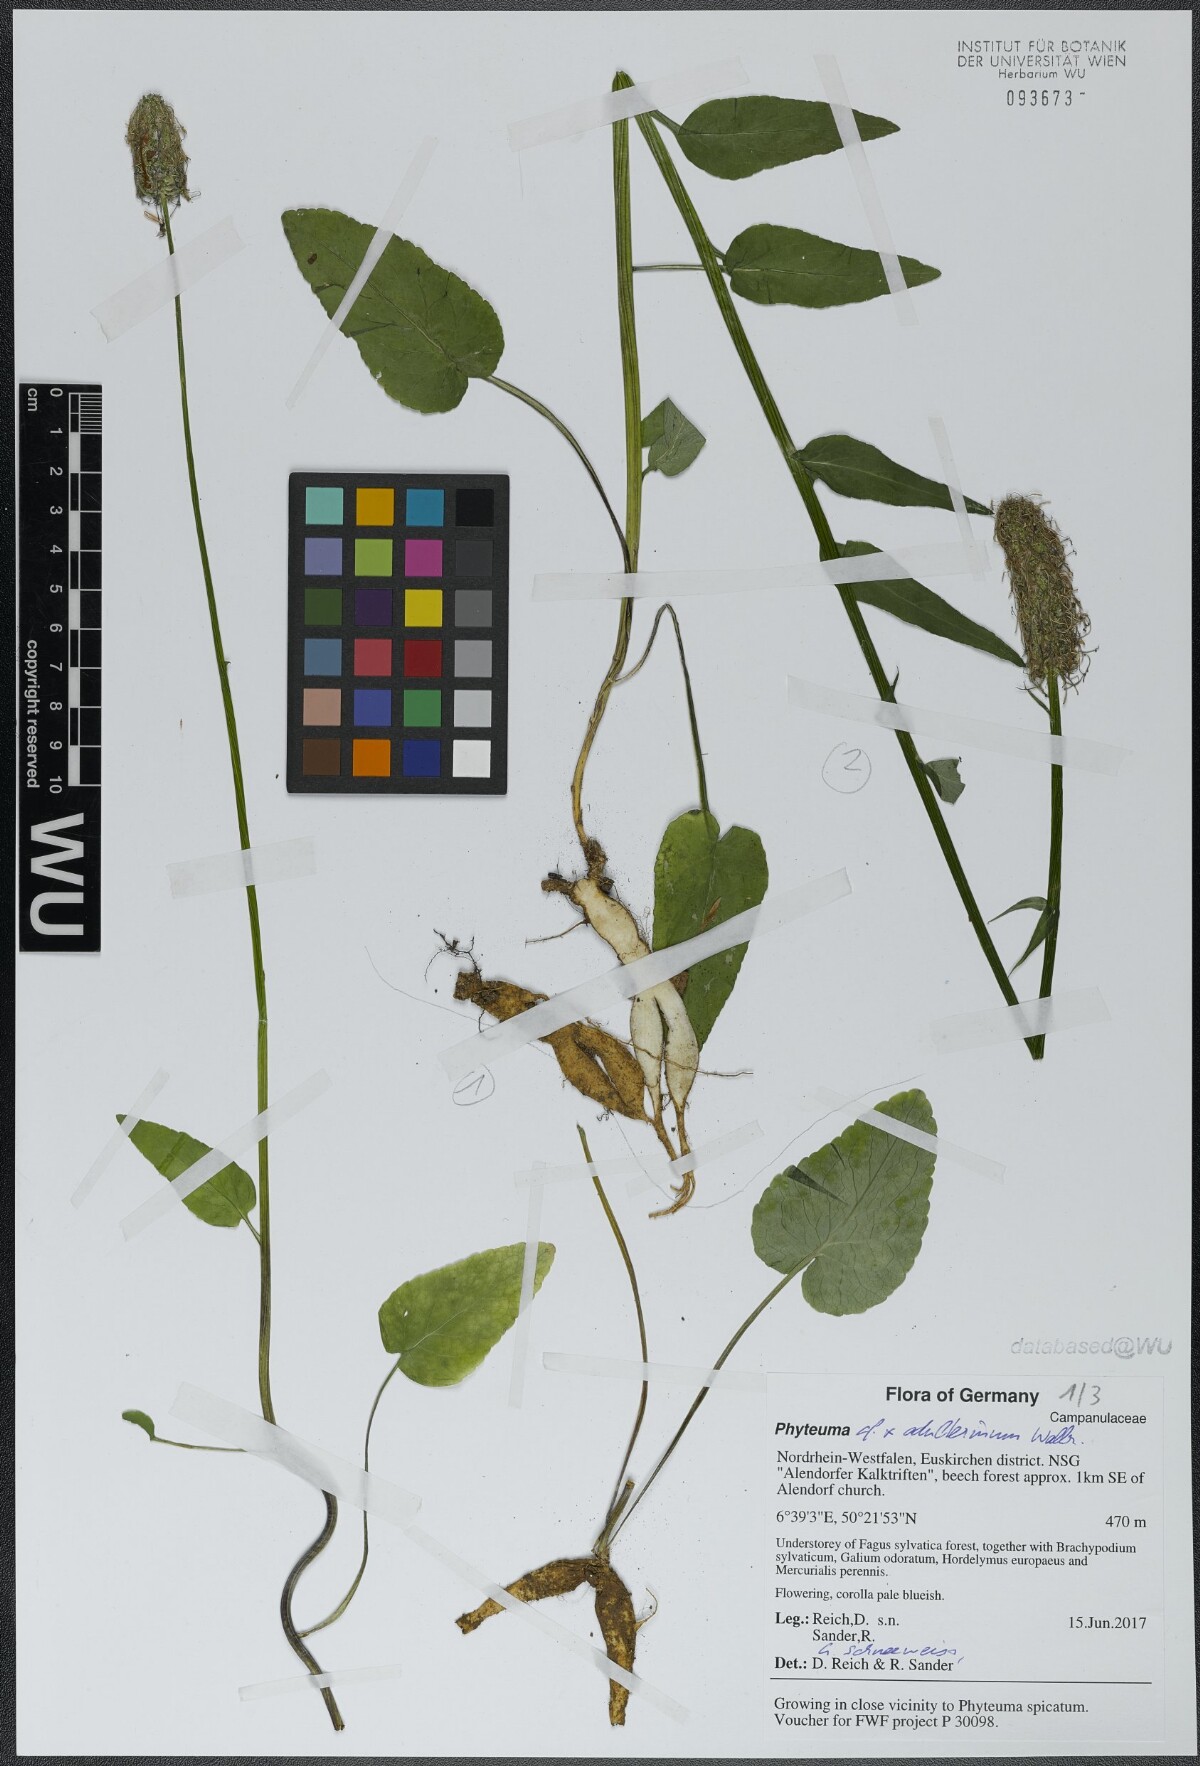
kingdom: Plantae
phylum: Tracheophyta
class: Magnoliopsida
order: Asterales
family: Campanulaceae
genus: Phyteuma
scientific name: Phyteuma
